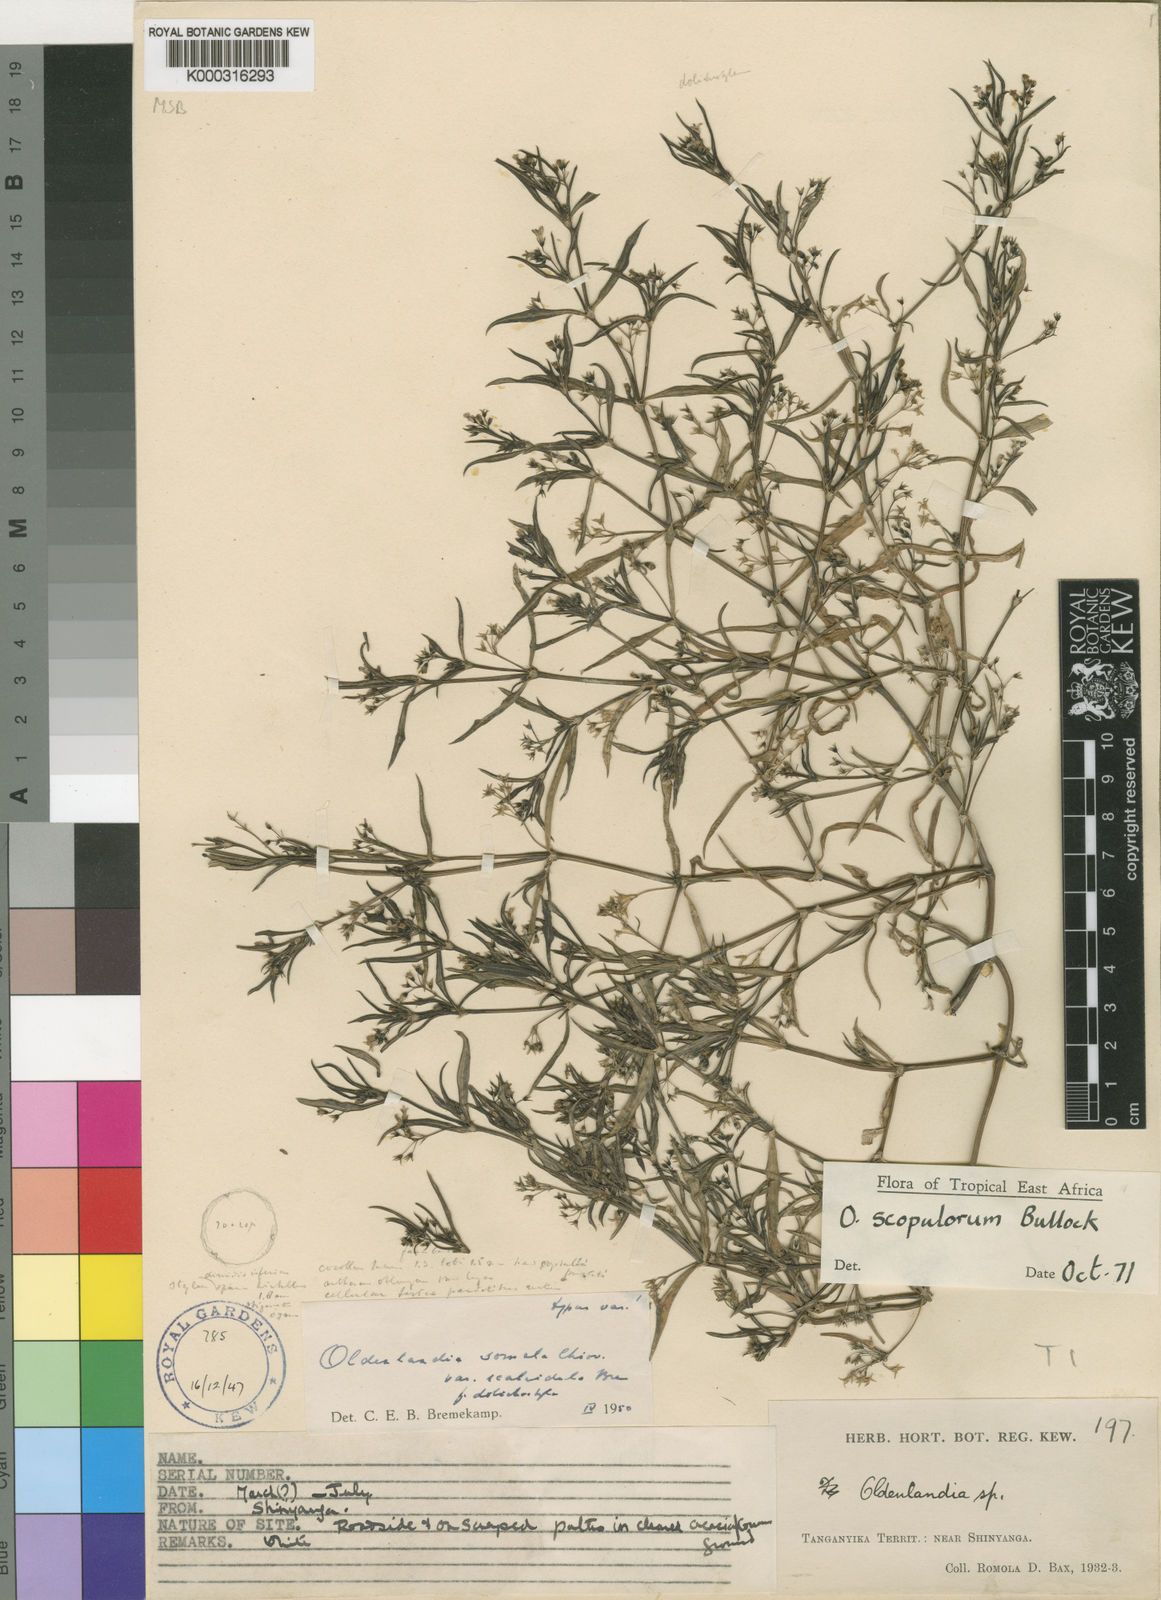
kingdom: Plantae
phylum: Tracheophyta
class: Magnoliopsida
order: Gentianales
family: Rubiaceae
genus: Oldenlandia
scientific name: Oldenlandia scopulorum
